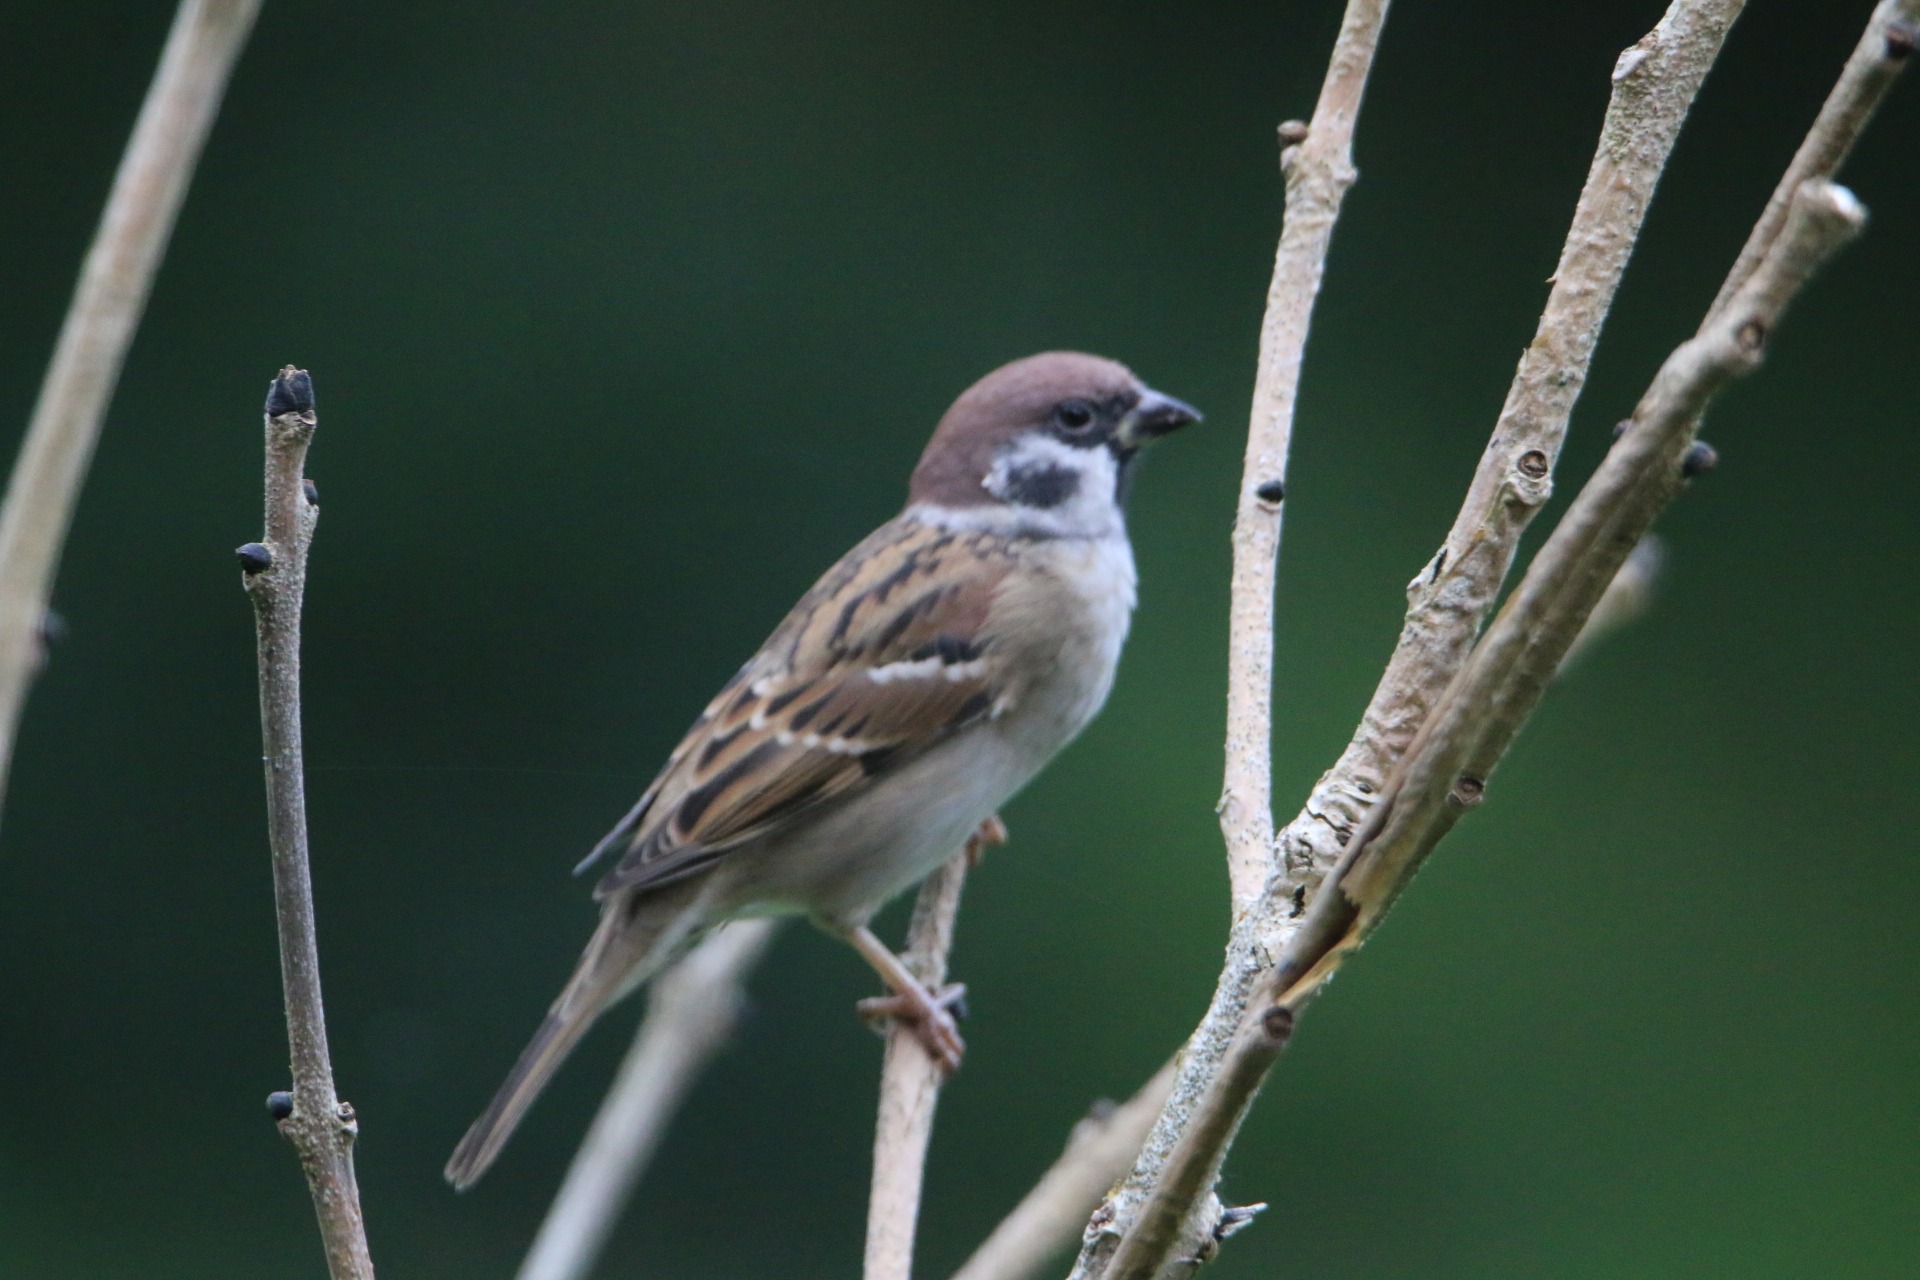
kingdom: Animalia
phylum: Chordata
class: Aves
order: Passeriformes
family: Passeridae
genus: Passer
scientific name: Passer montanus
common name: Skovspurv
